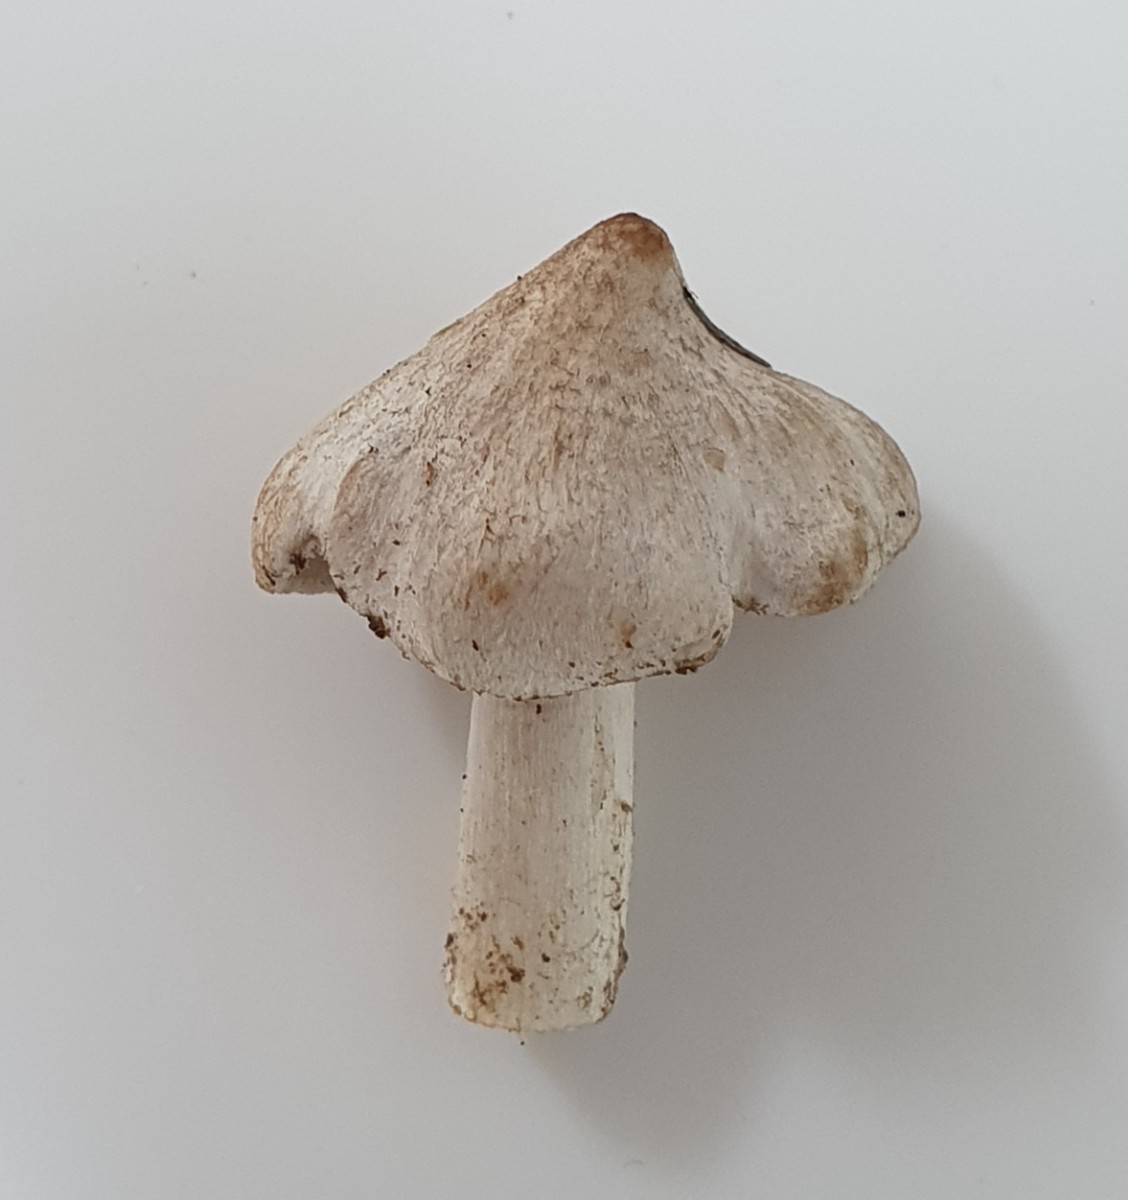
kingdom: Fungi
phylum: Basidiomycota
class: Agaricomycetes
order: Agaricales
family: Tricholomataceae
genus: Tricholoma
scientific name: Tricholoma argyraceum
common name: spids ridderhat
